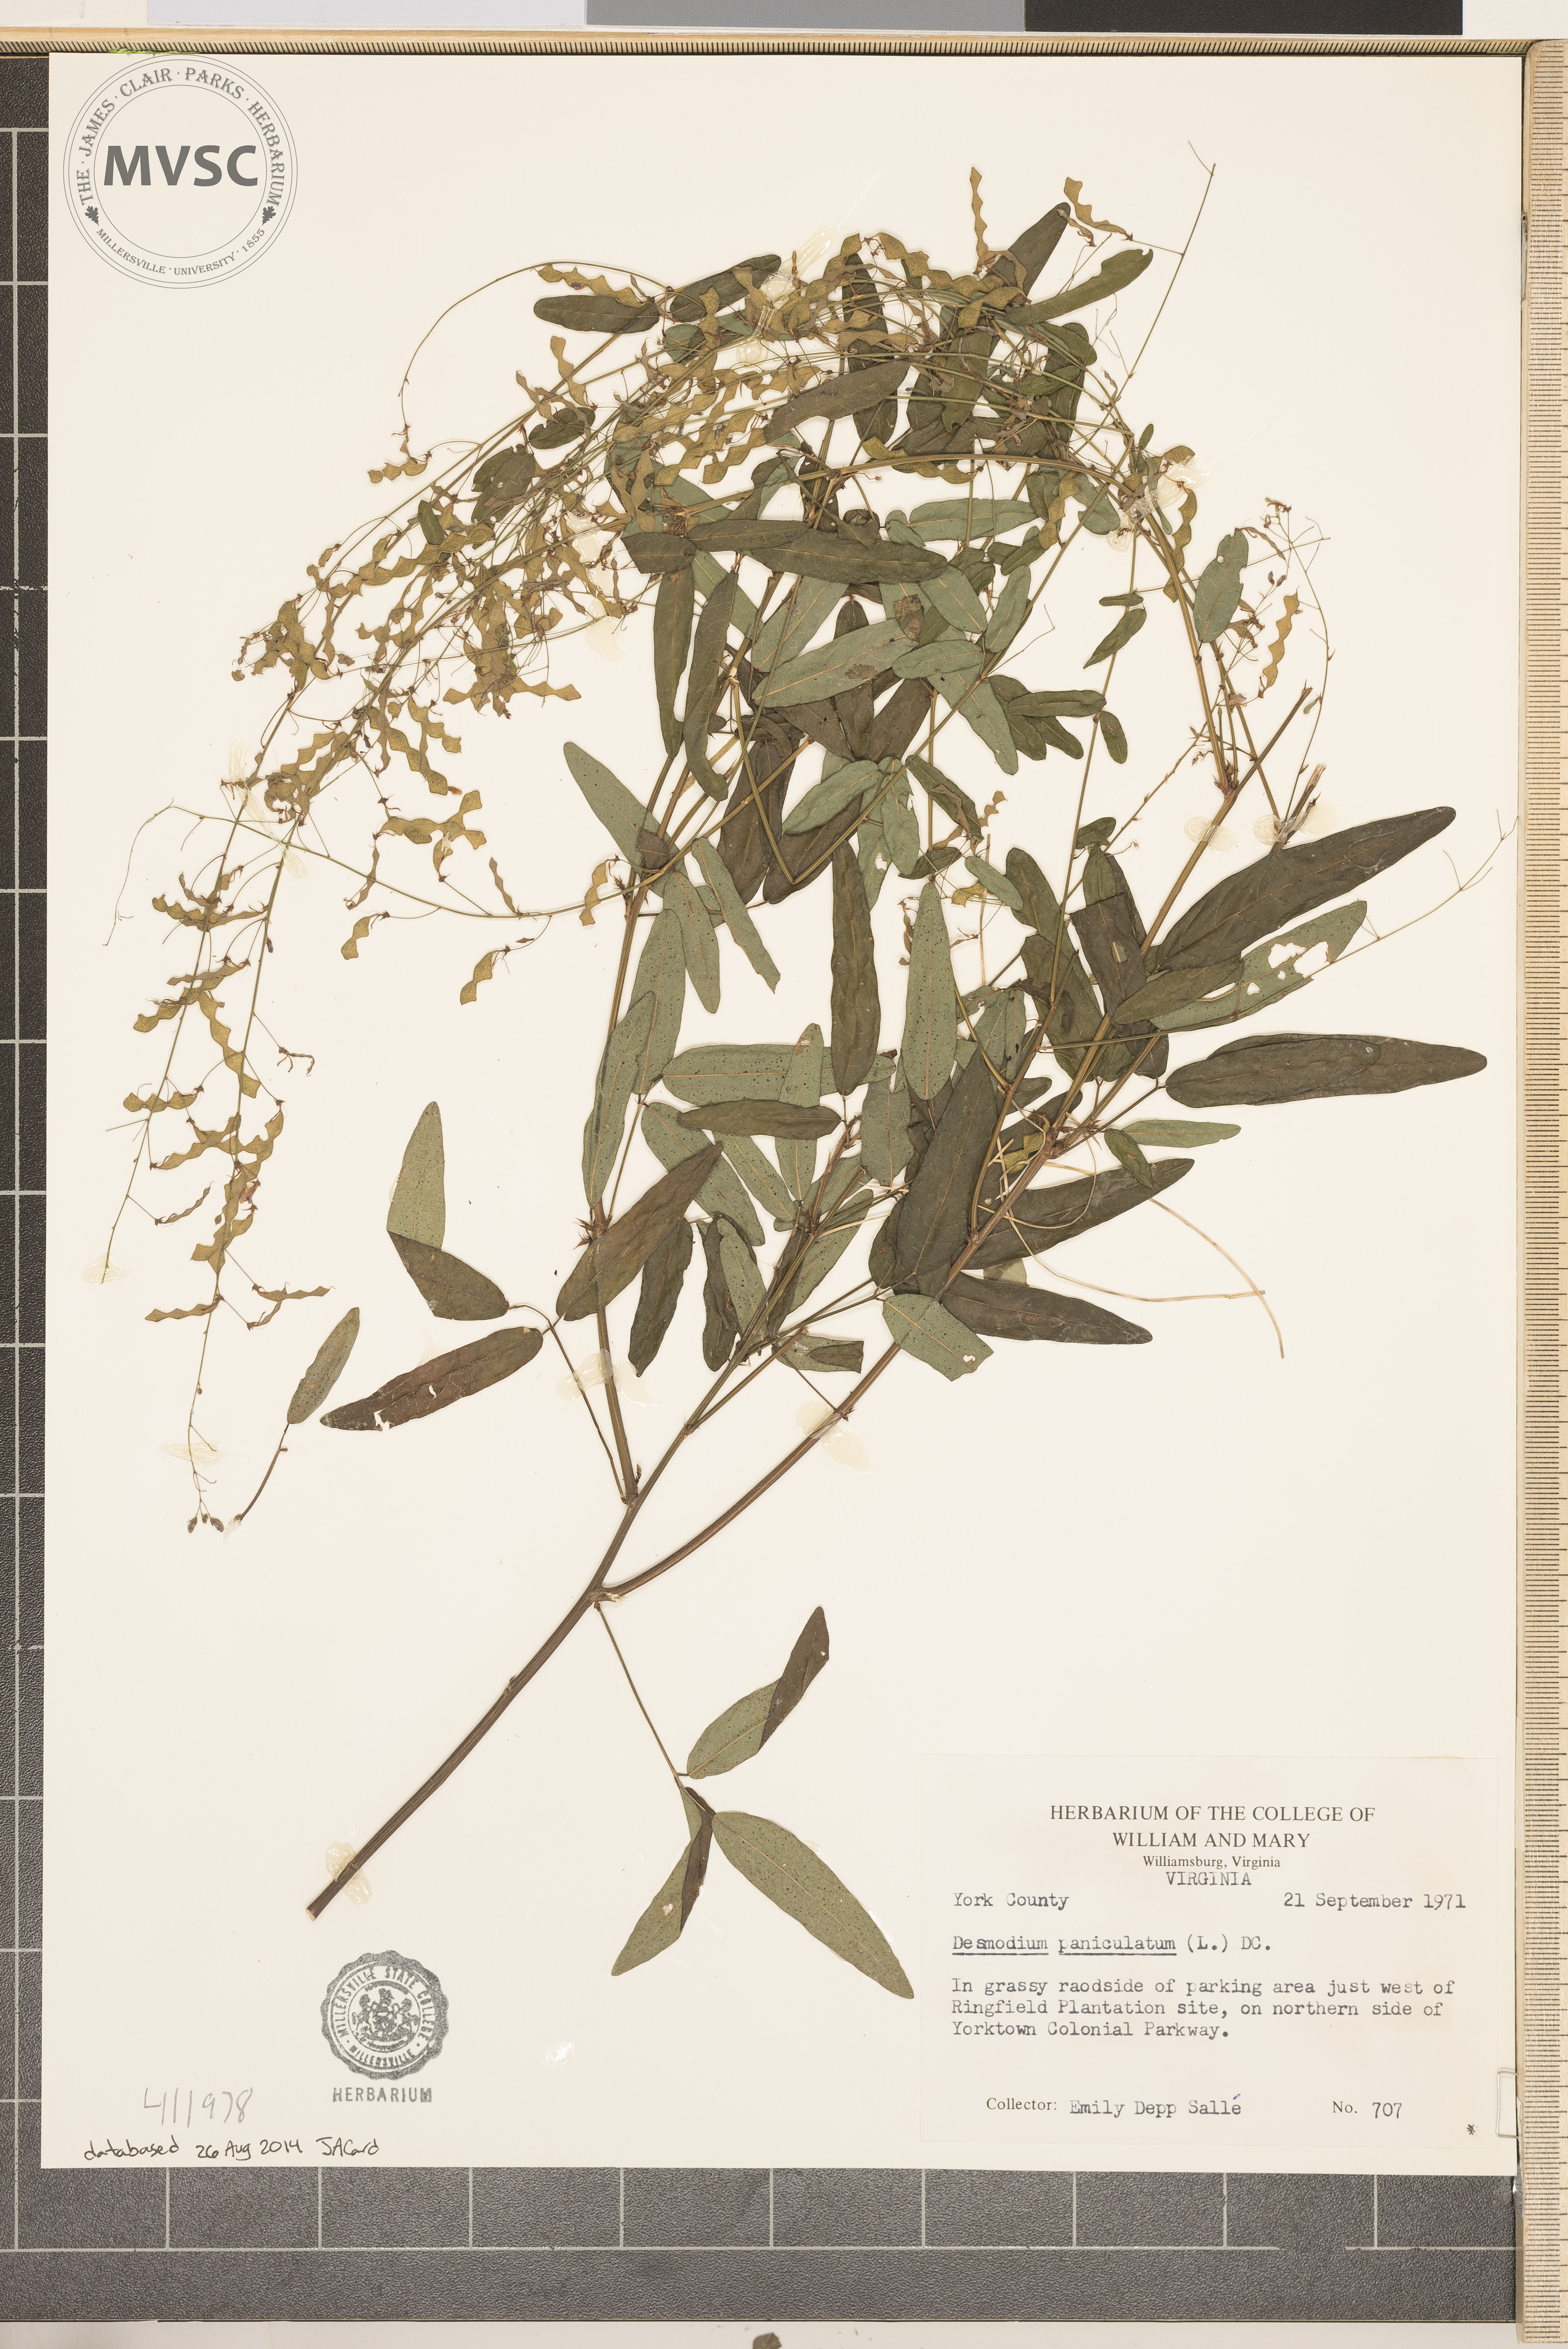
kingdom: Plantae
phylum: Tracheophyta
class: Magnoliopsida
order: Fabales
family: Fabaceae
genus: Desmodium
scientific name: Desmodium paniculatum
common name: Panicled tick-clover
